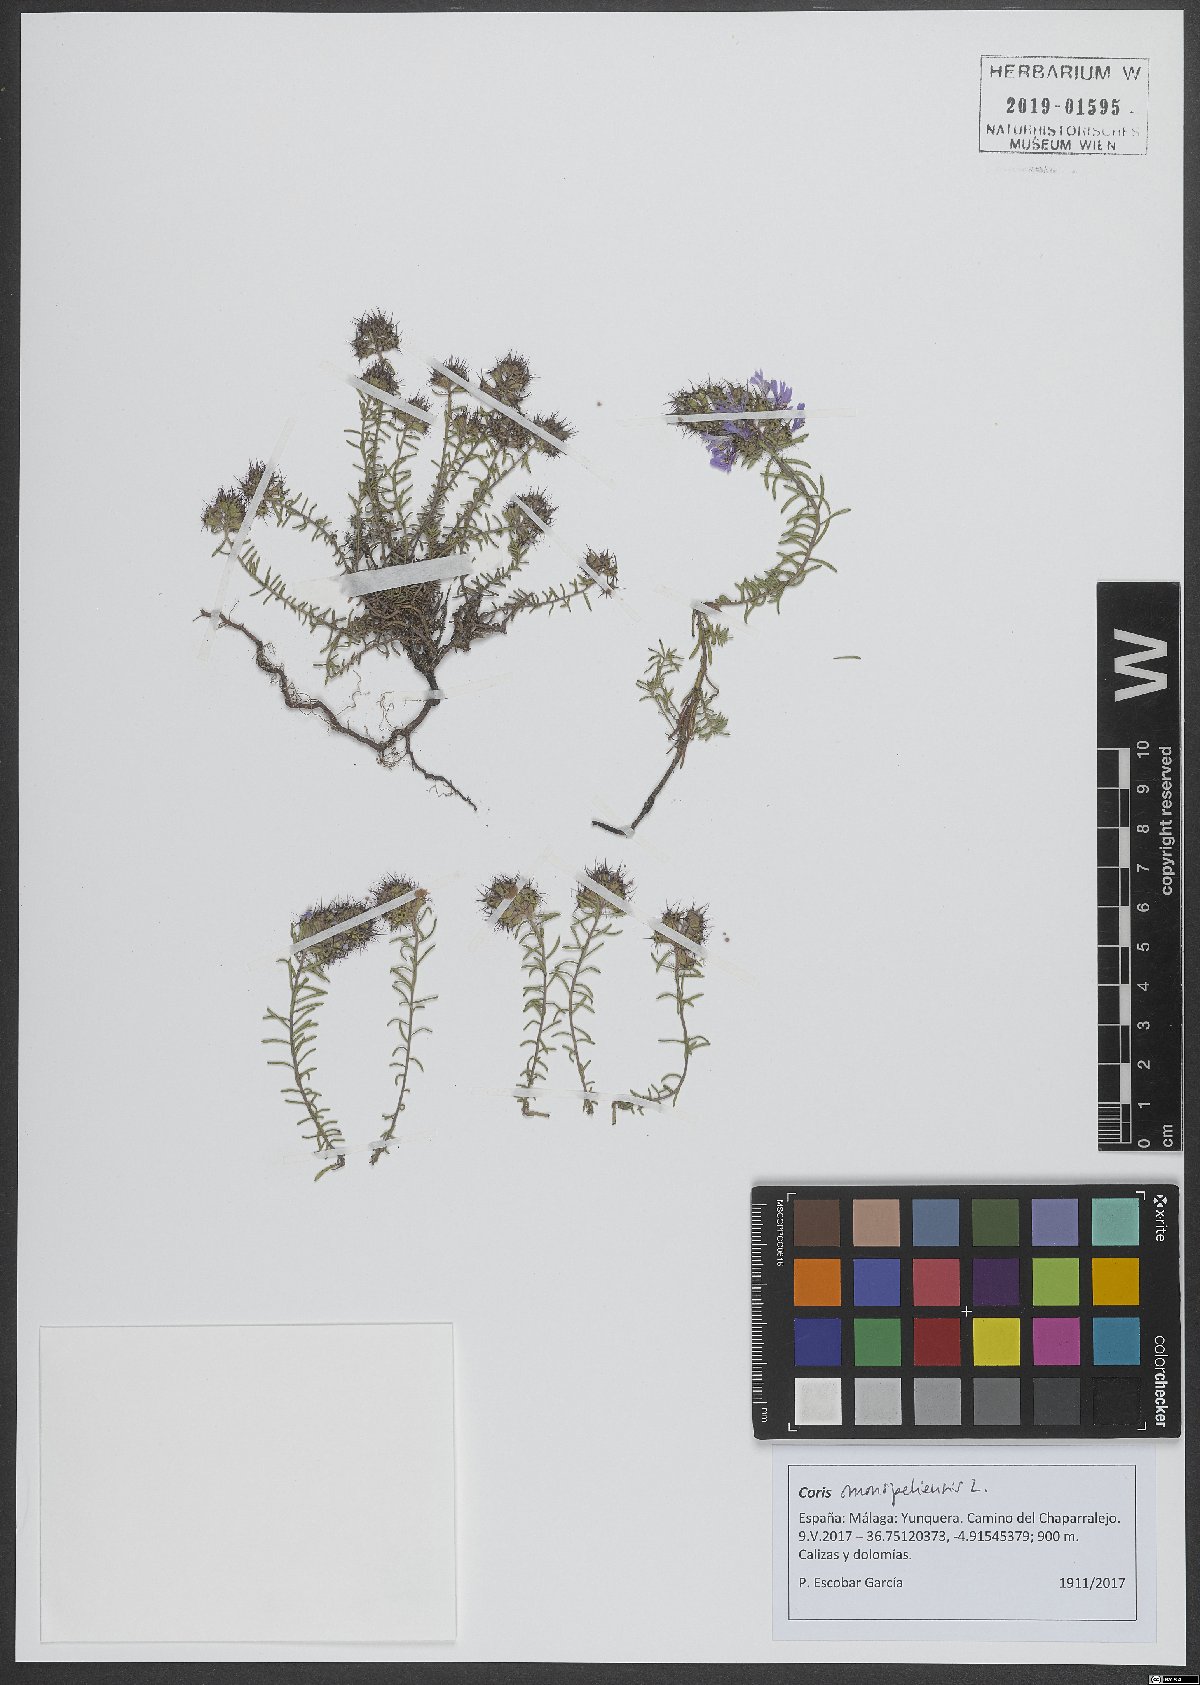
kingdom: Plantae
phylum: Tracheophyta
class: Magnoliopsida
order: Ericales
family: Primulaceae
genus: Coris
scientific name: Coris monspeliensis
